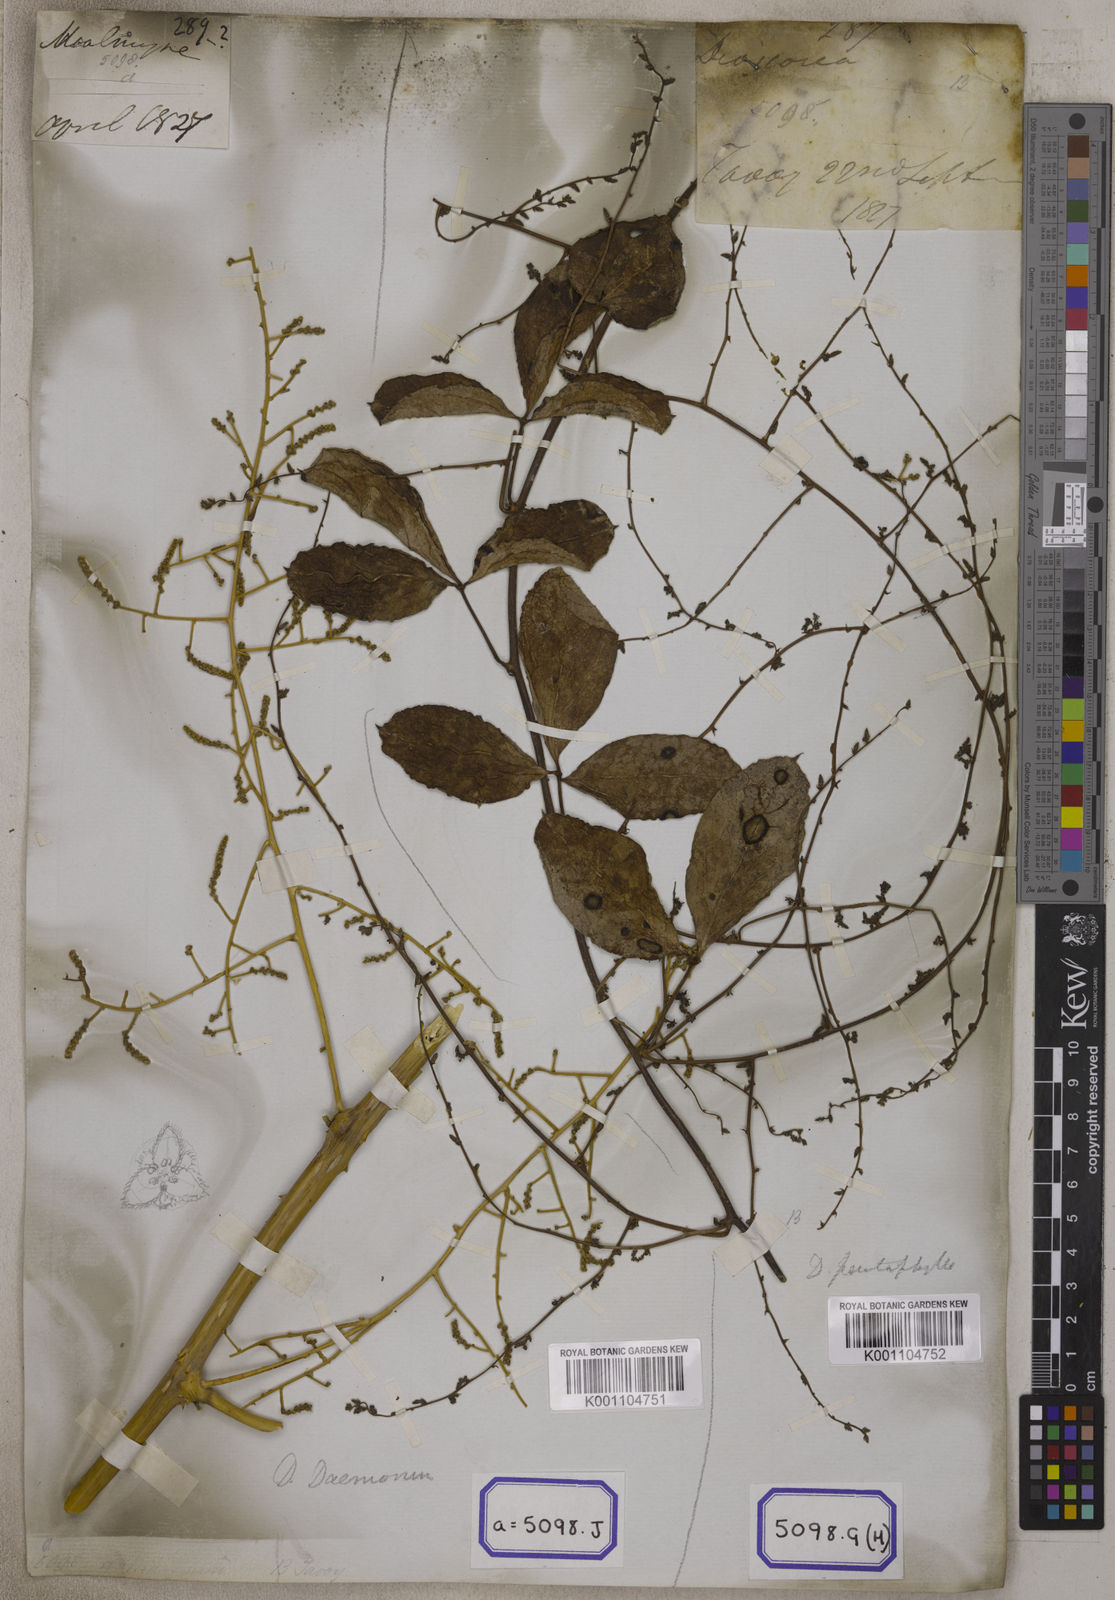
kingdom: Plantae
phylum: Tracheophyta
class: Liliopsida
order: Dioscoreales
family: Dioscoreaceae
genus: Dioscorea
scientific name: Dioscorea
